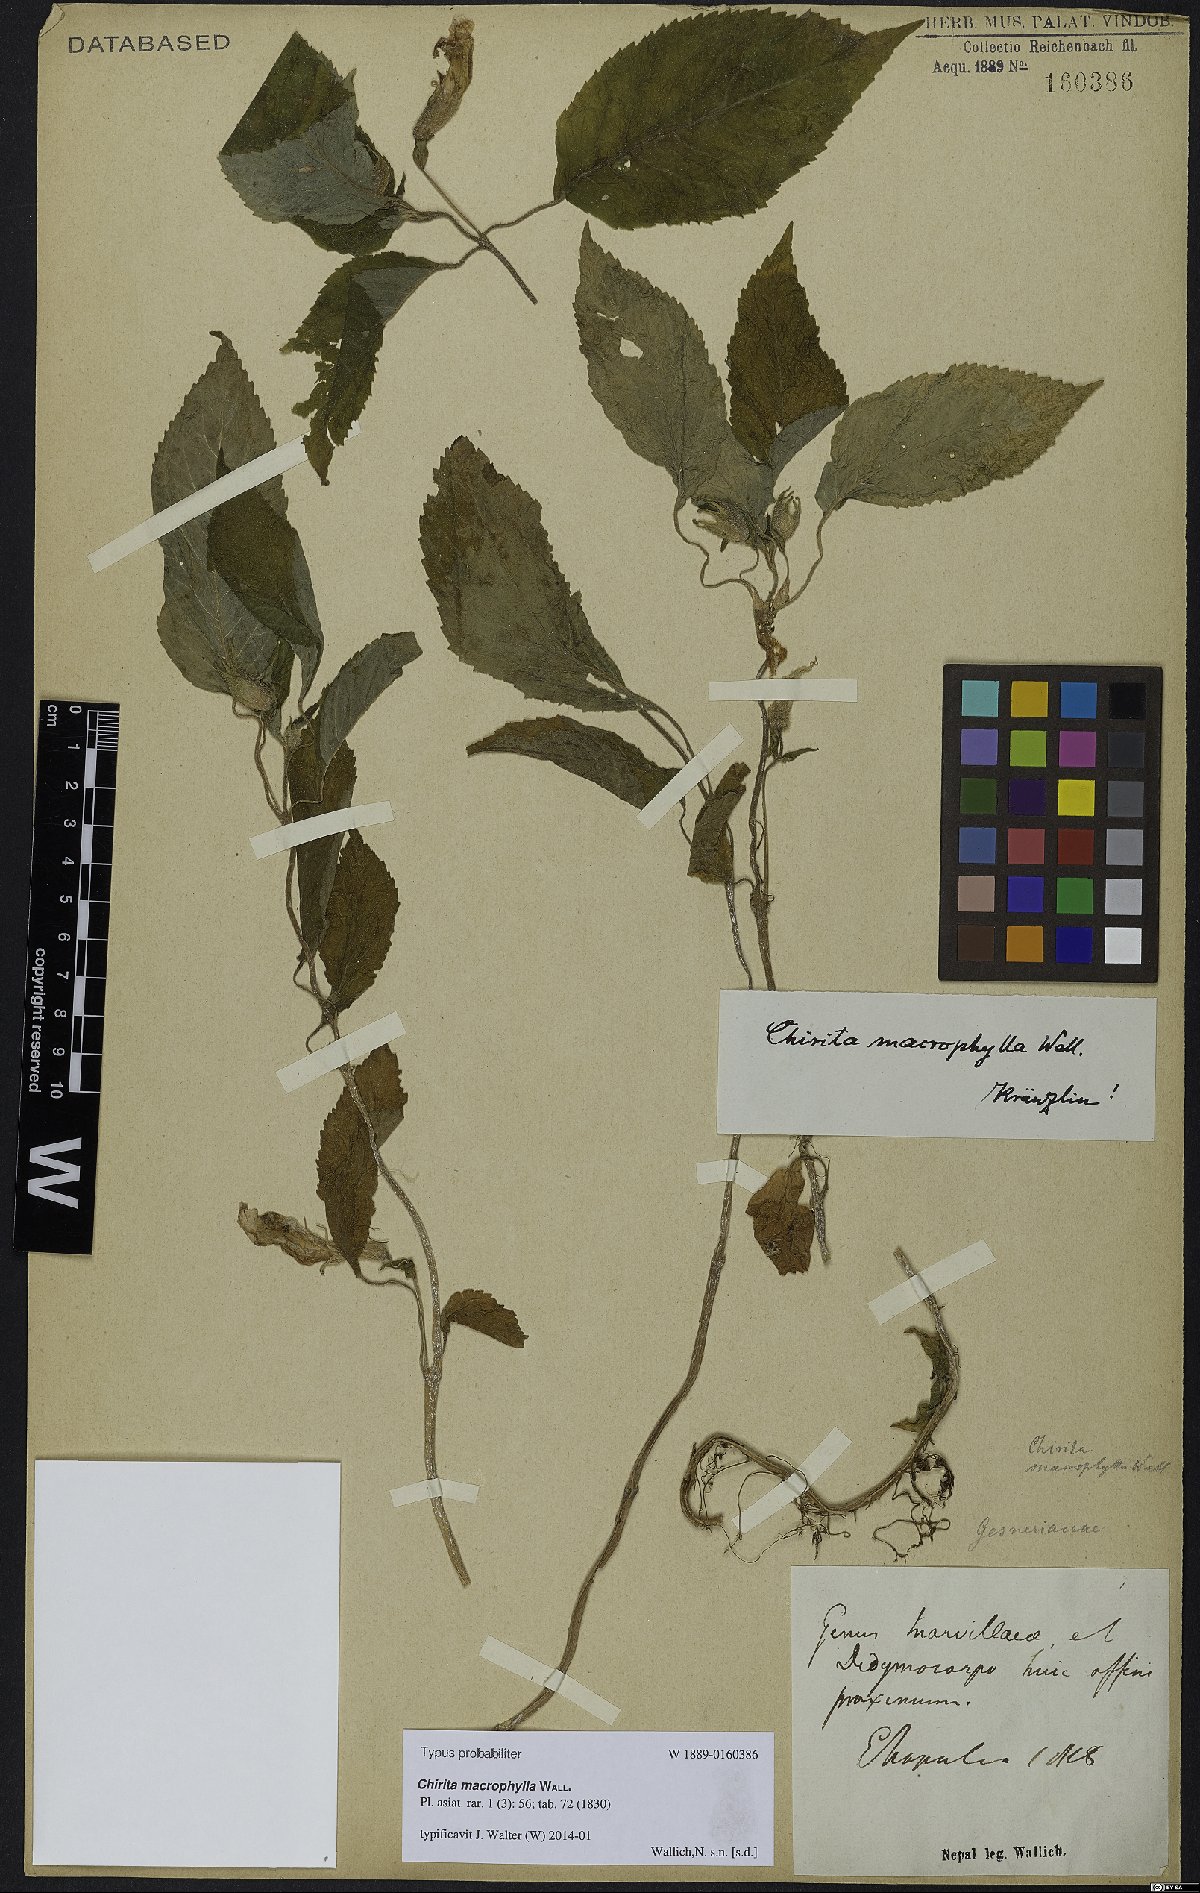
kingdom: Plantae
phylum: Tracheophyta
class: Magnoliopsida
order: Lamiales
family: Gesneriaceae
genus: Henckelia
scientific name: Henckelia grandifolia
